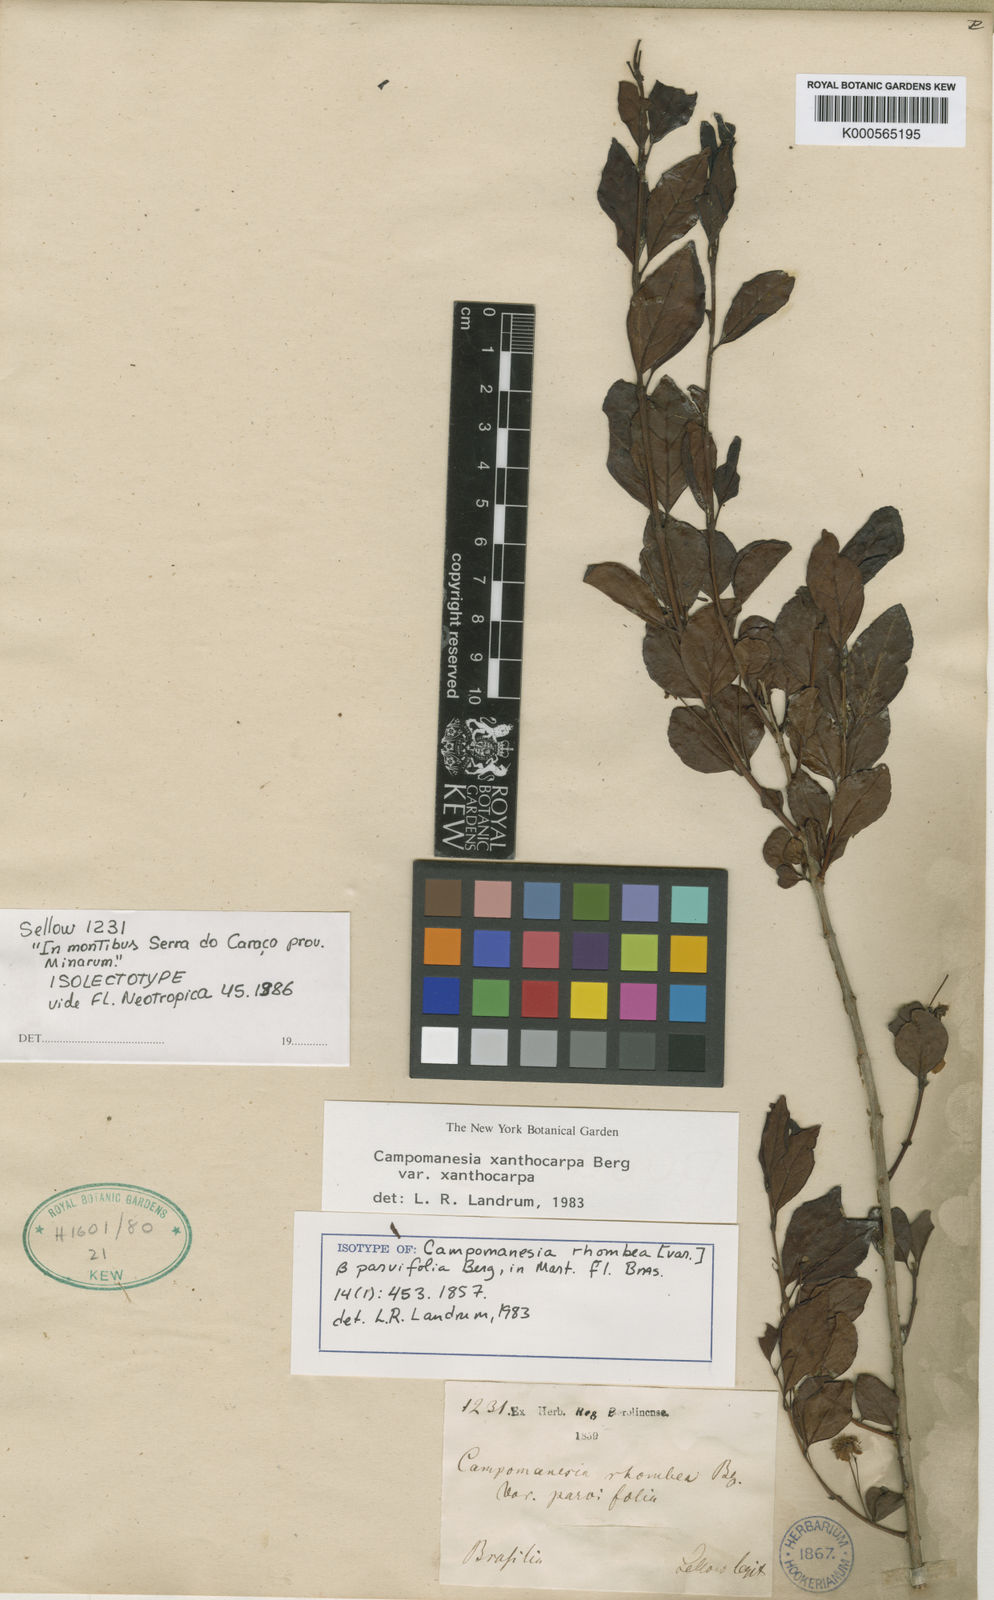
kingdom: Plantae
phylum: Tracheophyta
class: Magnoliopsida
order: Myrtales
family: Myrtaceae
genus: Campomanesia
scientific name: Campomanesia xanthocarpa
